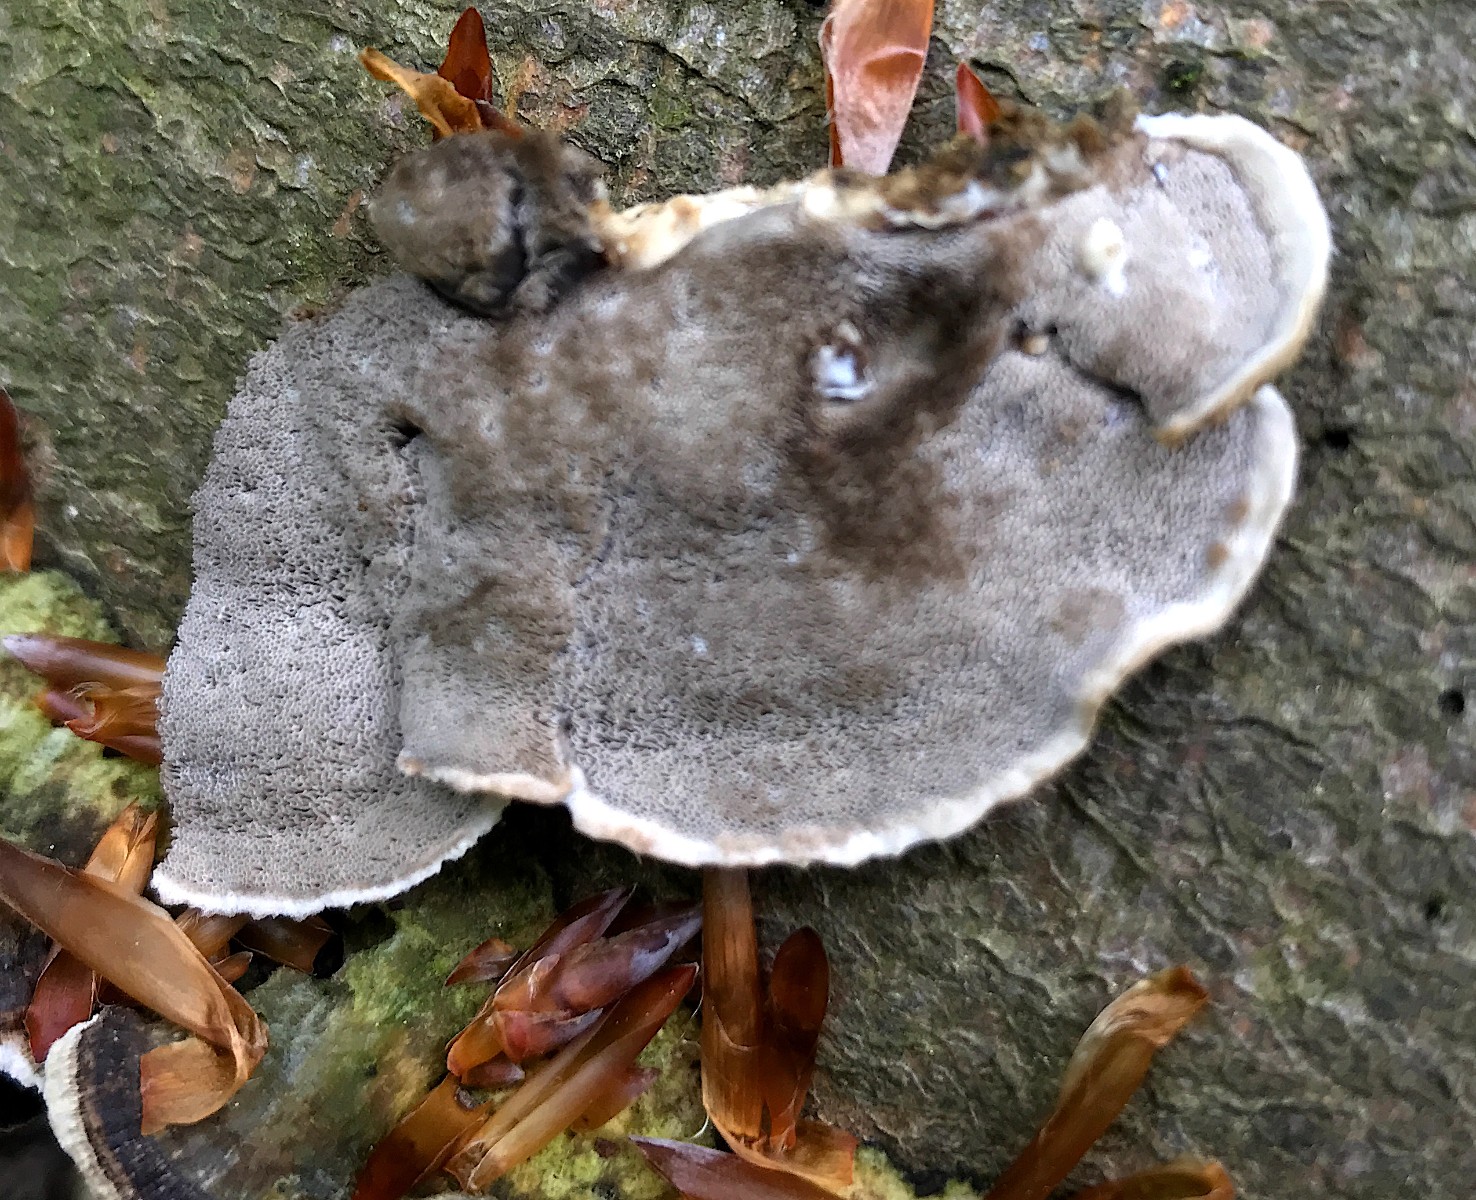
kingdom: Fungi
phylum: Basidiomycota
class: Agaricomycetes
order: Polyporales
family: Phanerochaetaceae
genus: Bjerkandera
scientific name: Bjerkandera adusta
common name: sveden sodporesvamp
